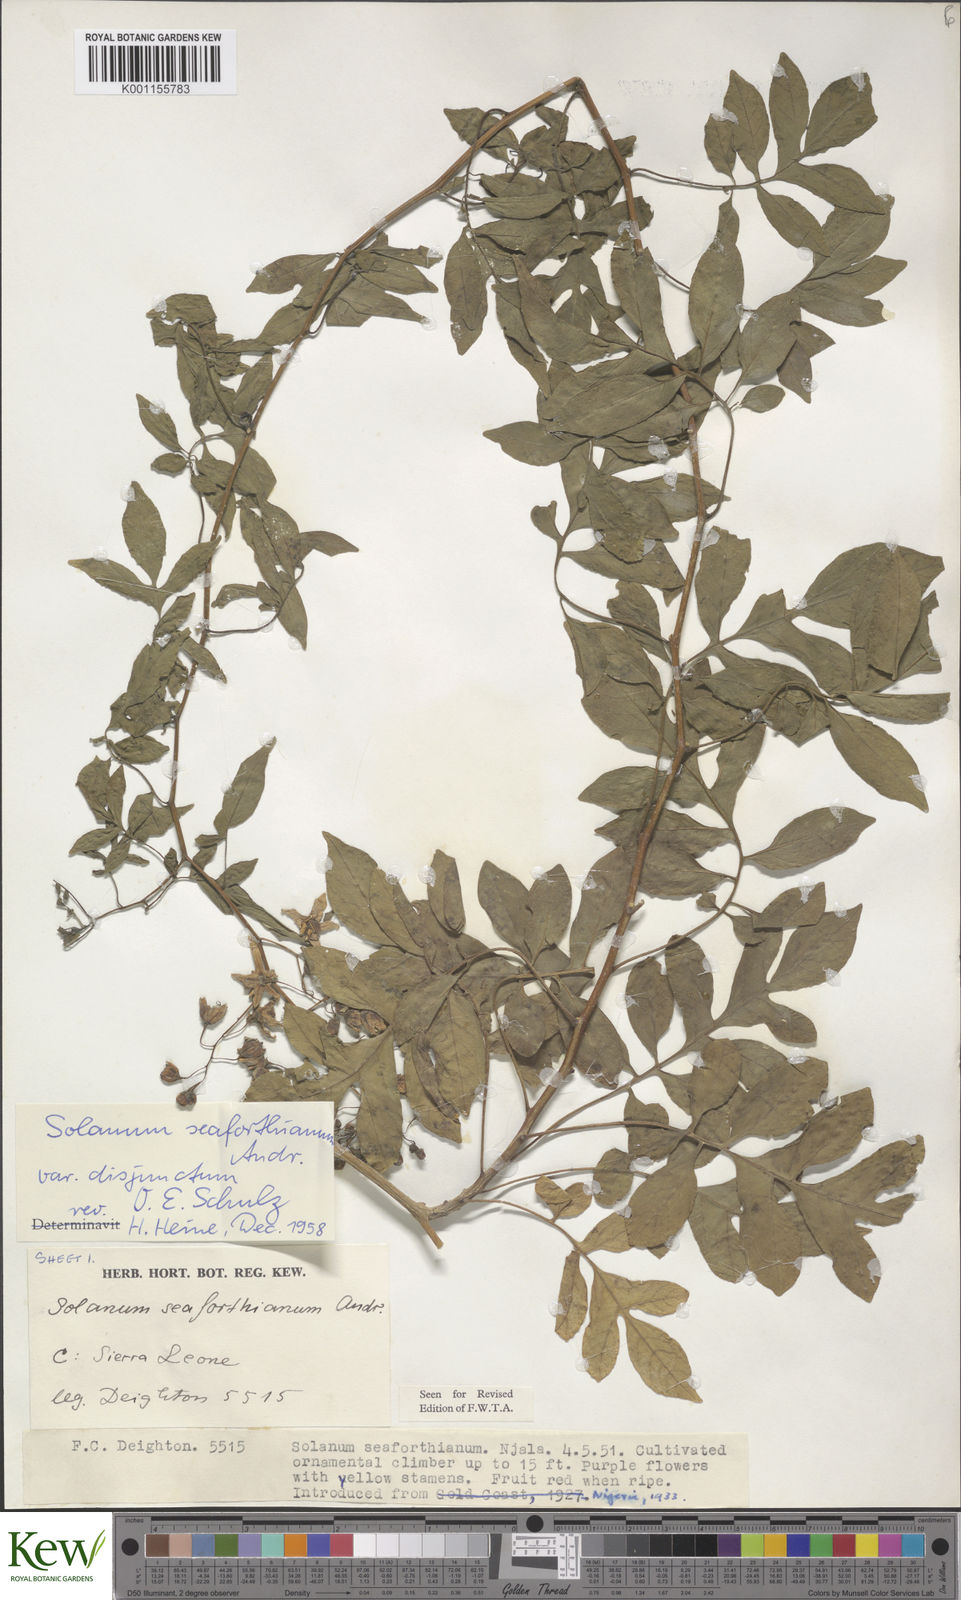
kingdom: Plantae
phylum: Tracheophyta
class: Magnoliopsida
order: Solanales
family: Solanaceae
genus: Solanum
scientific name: Solanum seaforthianum
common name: Brazilian nightshade
